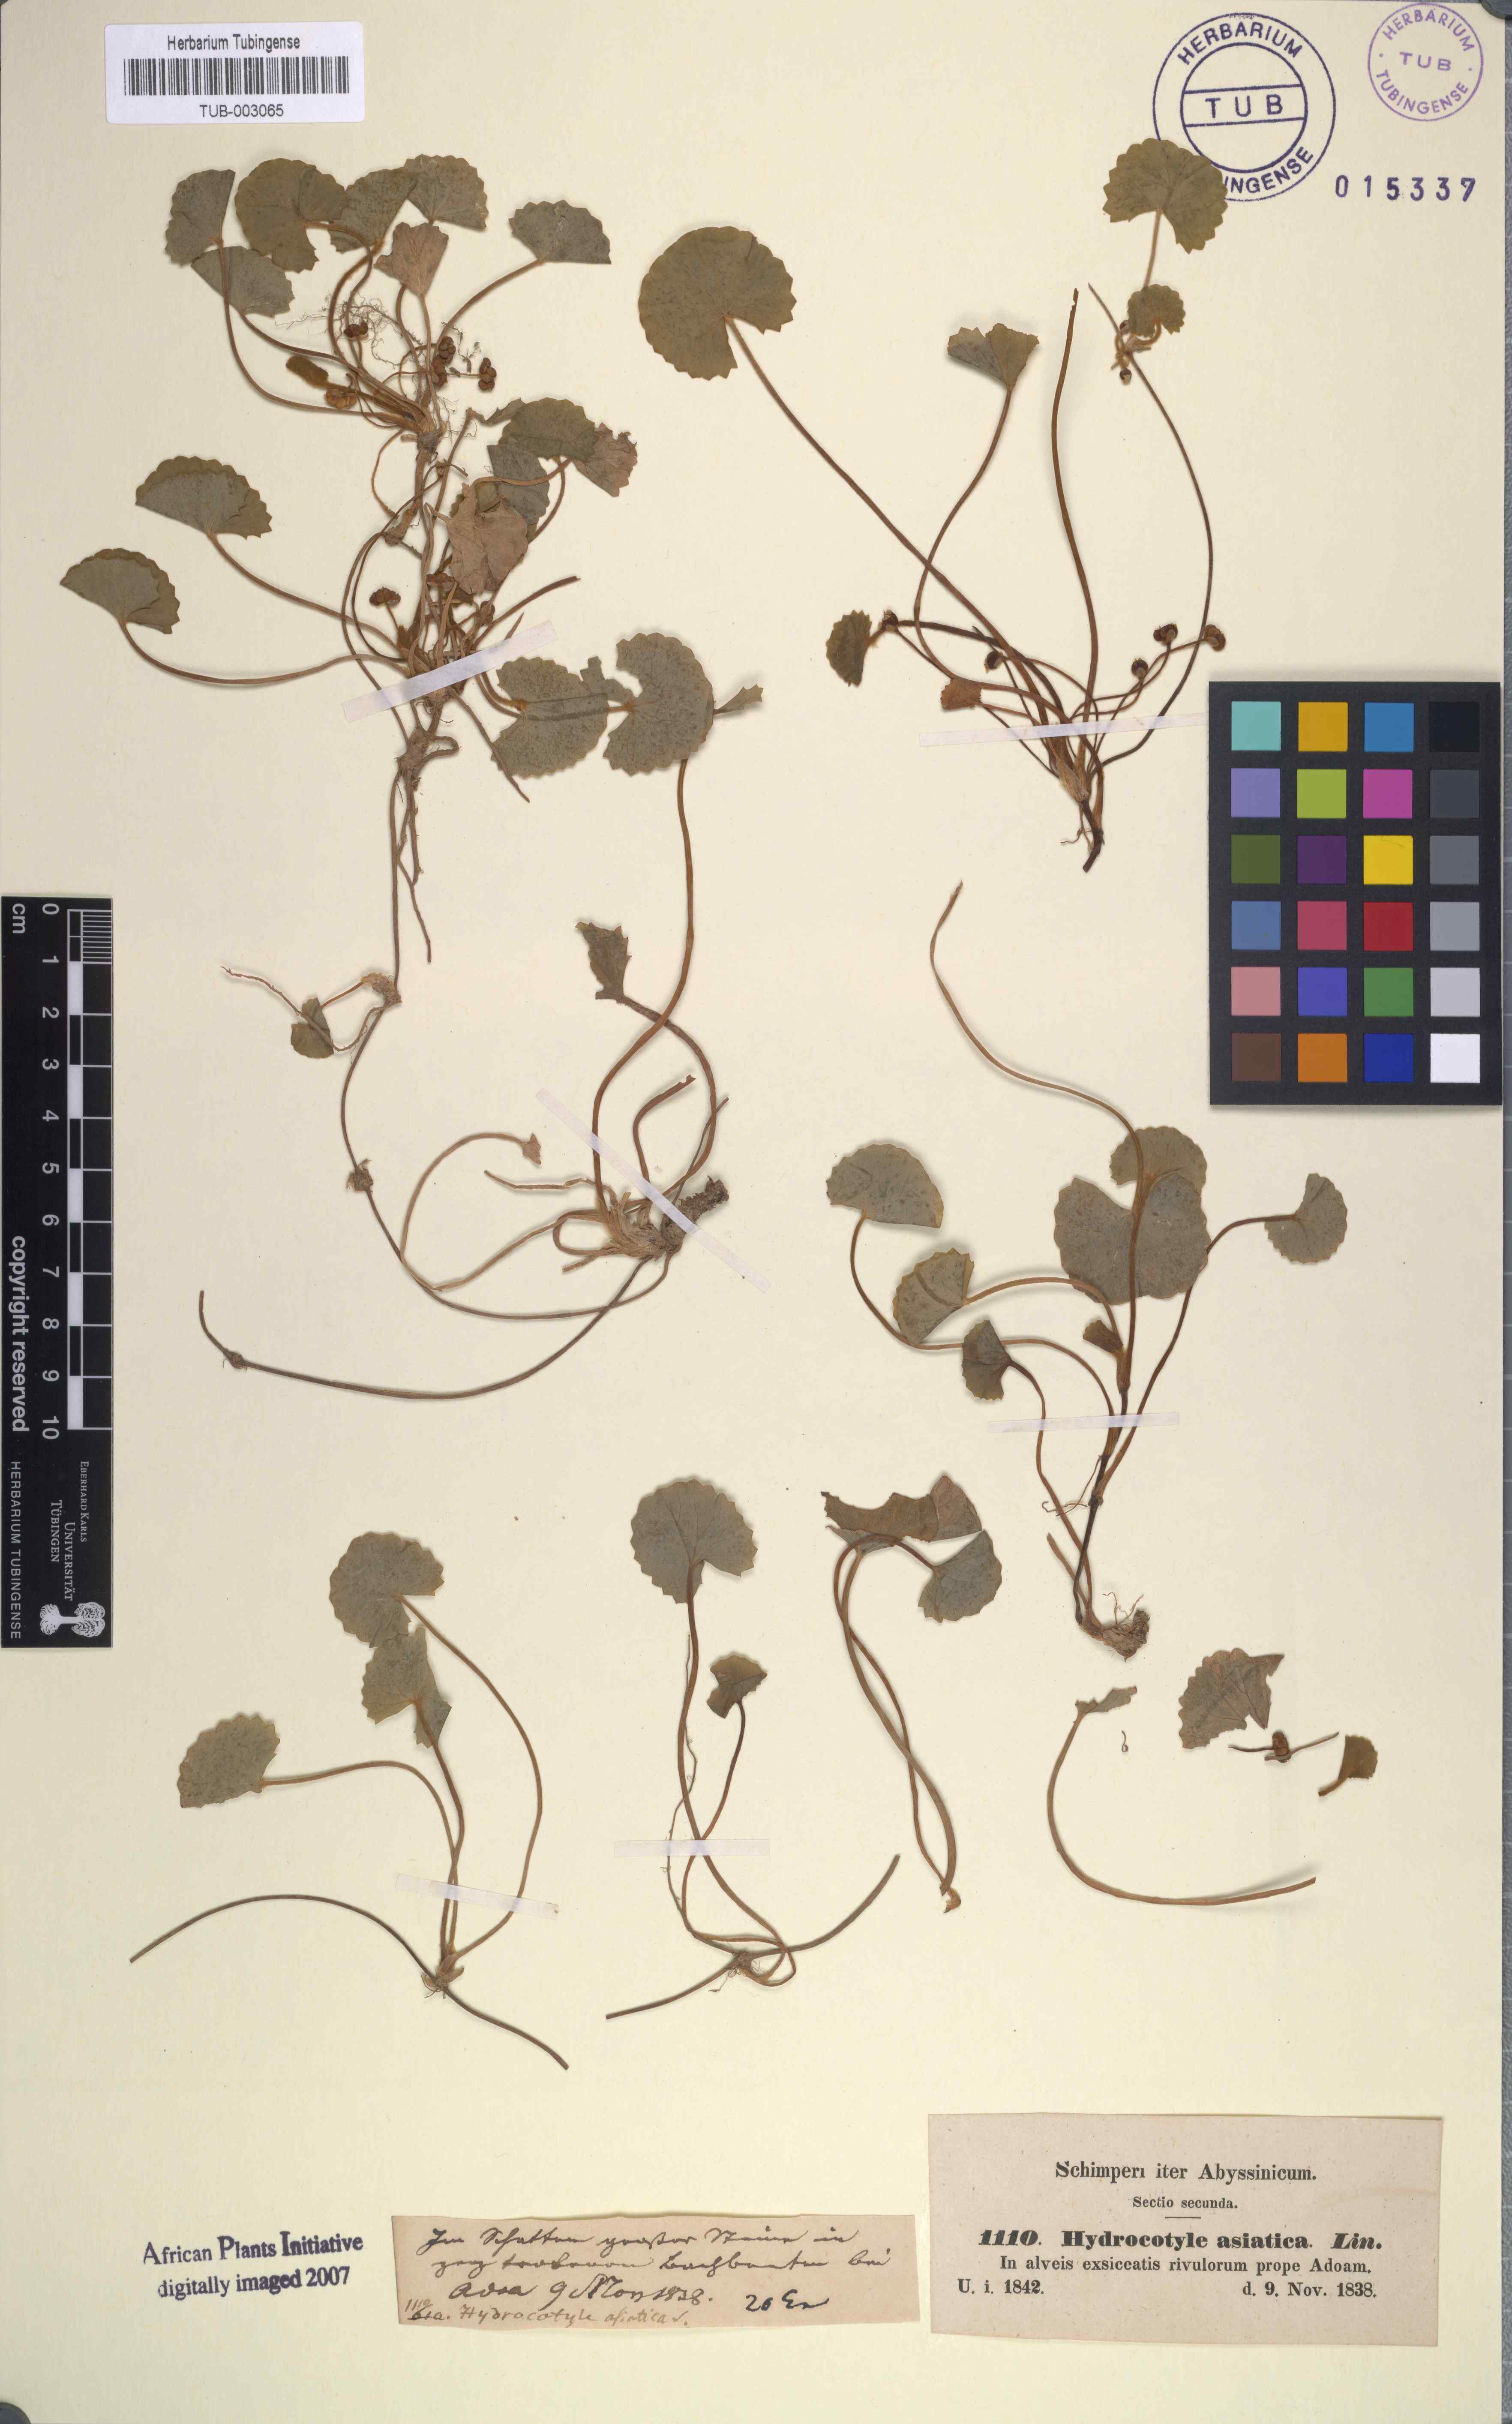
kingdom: Plantae
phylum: Tracheophyta
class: Magnoliopsida
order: Apiales
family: Apiaceae
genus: Centella
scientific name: Centella asiatica
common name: Spadeleaf
